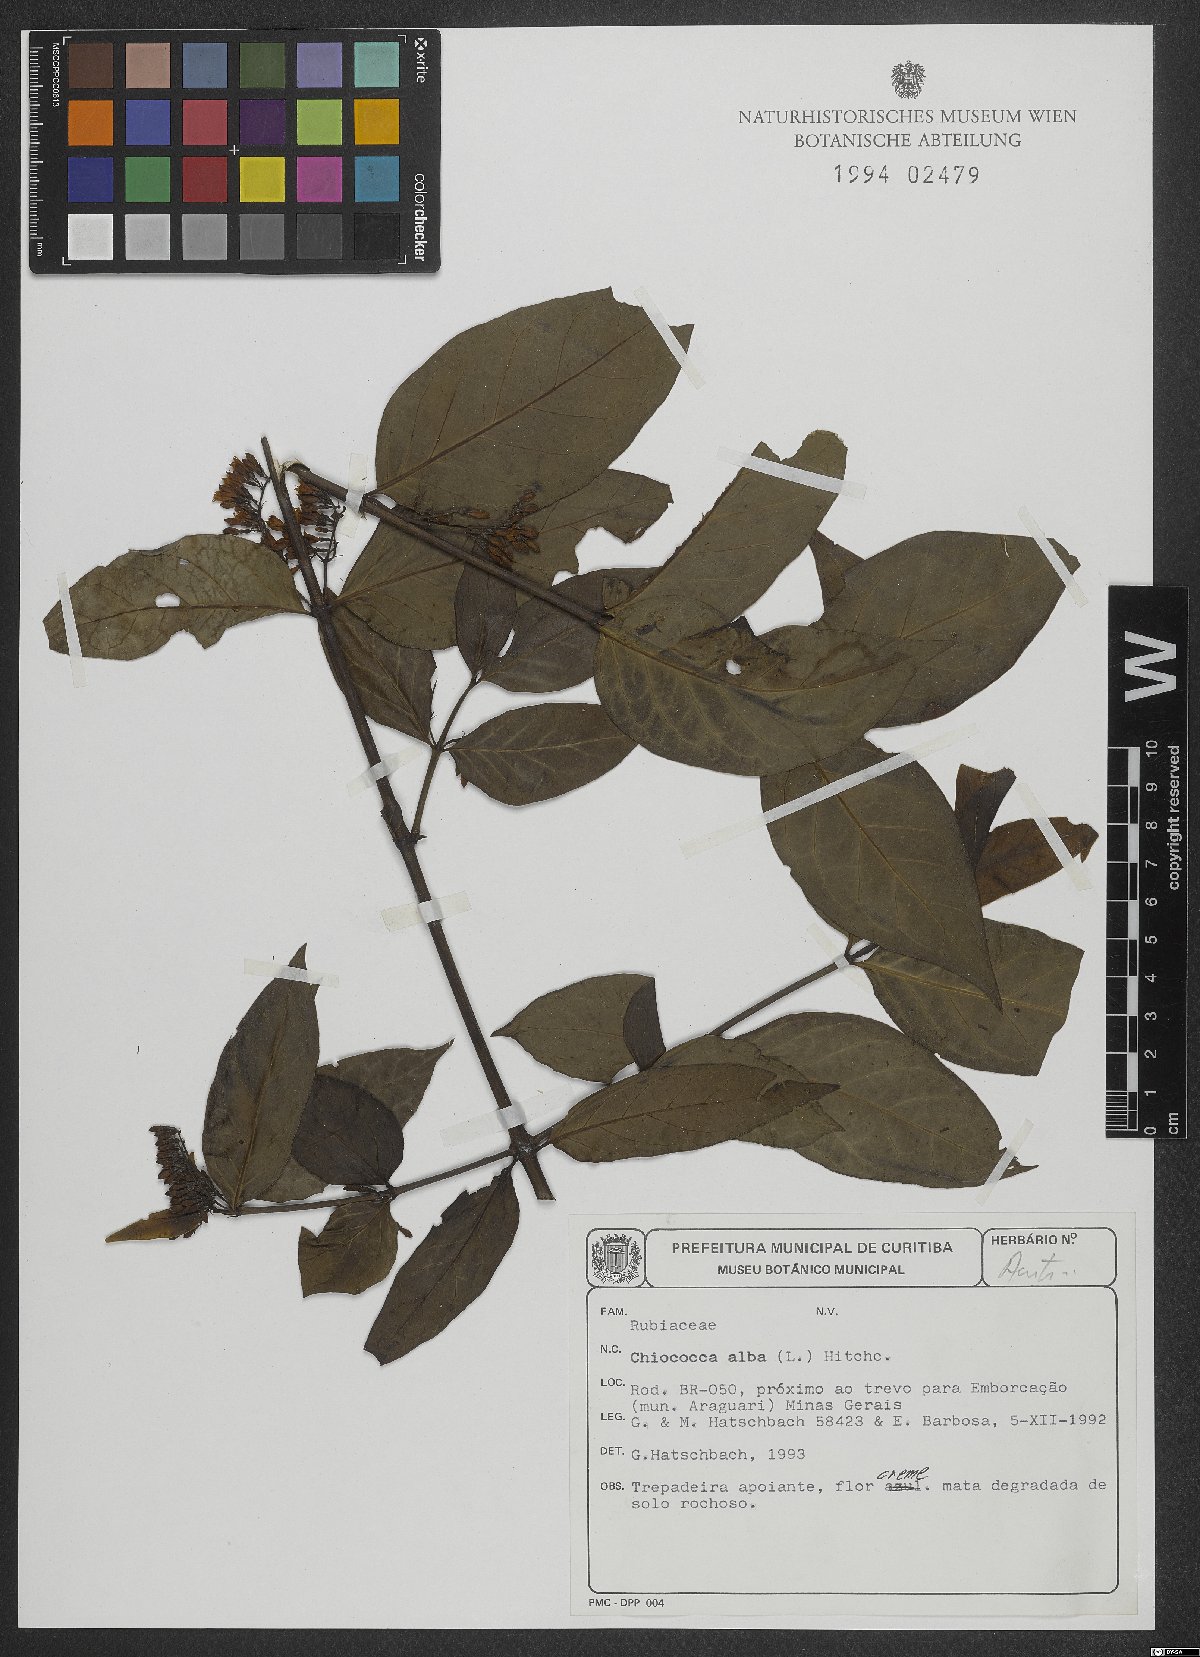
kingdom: Plantae
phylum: Tracheophyta
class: Magnoliopsida
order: Gentianales
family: Rubiaceae
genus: Chiococca
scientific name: Chiococca alba
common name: Snowberry
